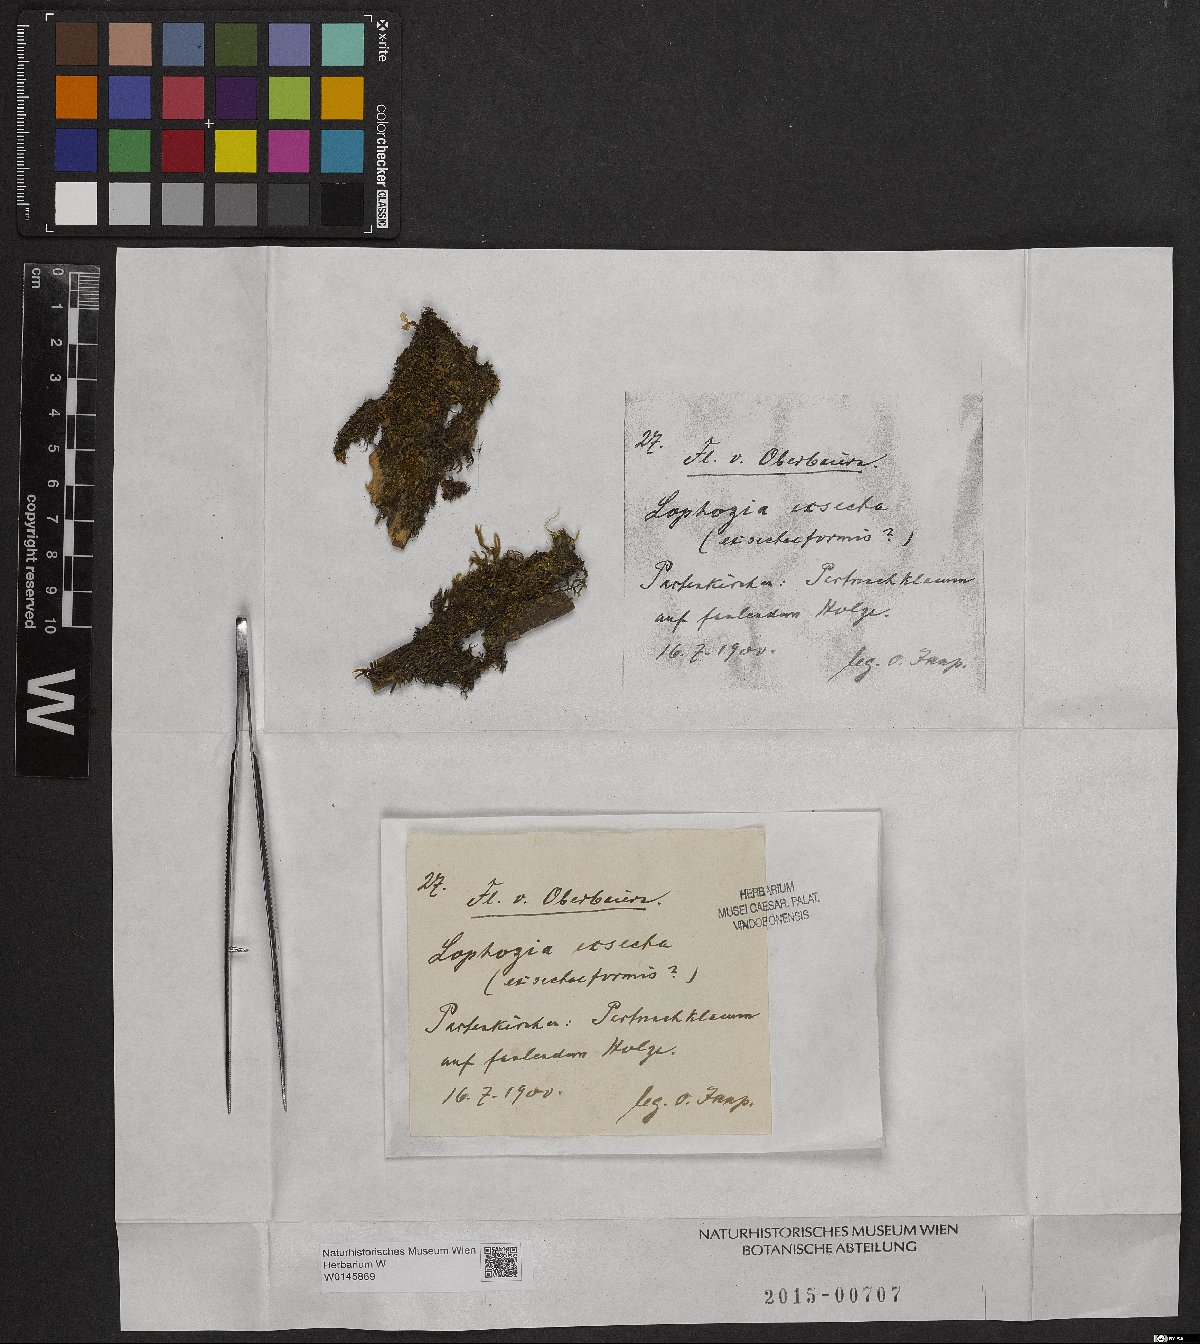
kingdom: Plantae
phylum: Marchantiophyta
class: Jungermanniopsida
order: Jungermanniales
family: Lophoziaceae
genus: Tritomaria
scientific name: Tritomaria exsecta
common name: Cut notchwort
